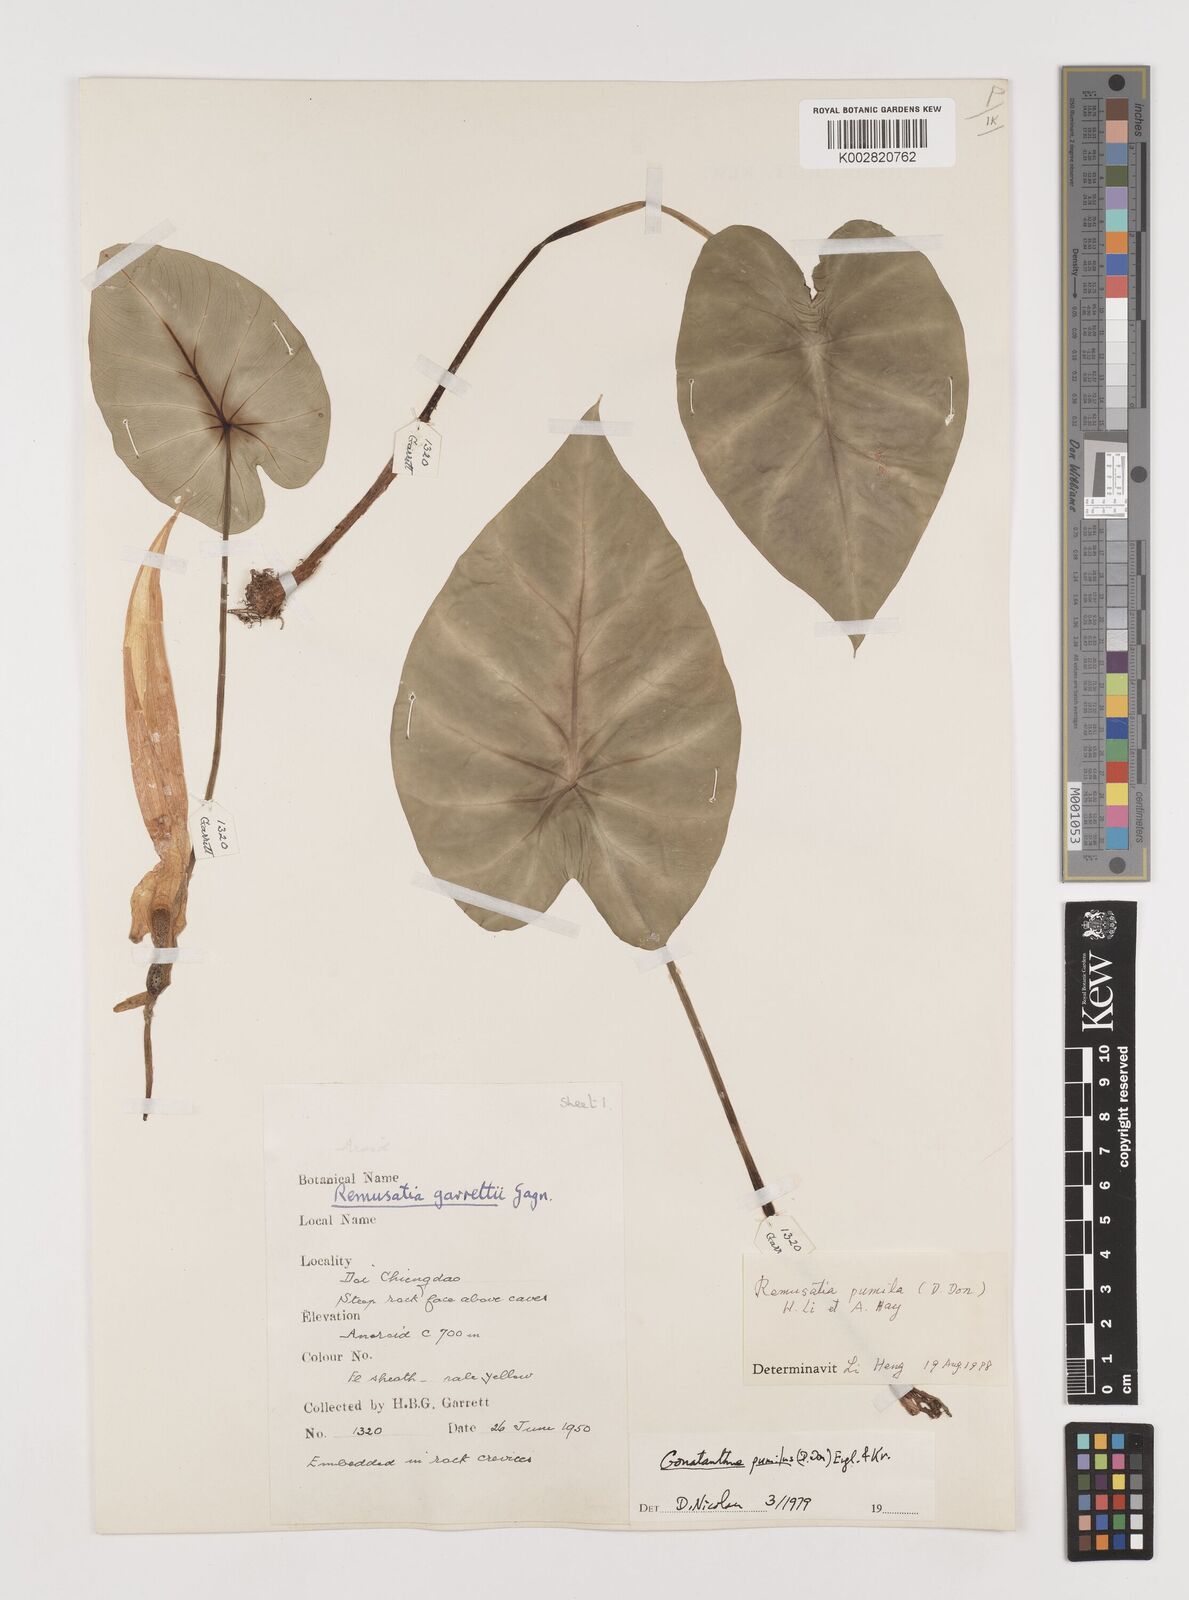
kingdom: Plantae
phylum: Tracheophyta
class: Liliopsida
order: Alismatales
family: Araceae
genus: Remusatia
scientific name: Remusatia pumila
